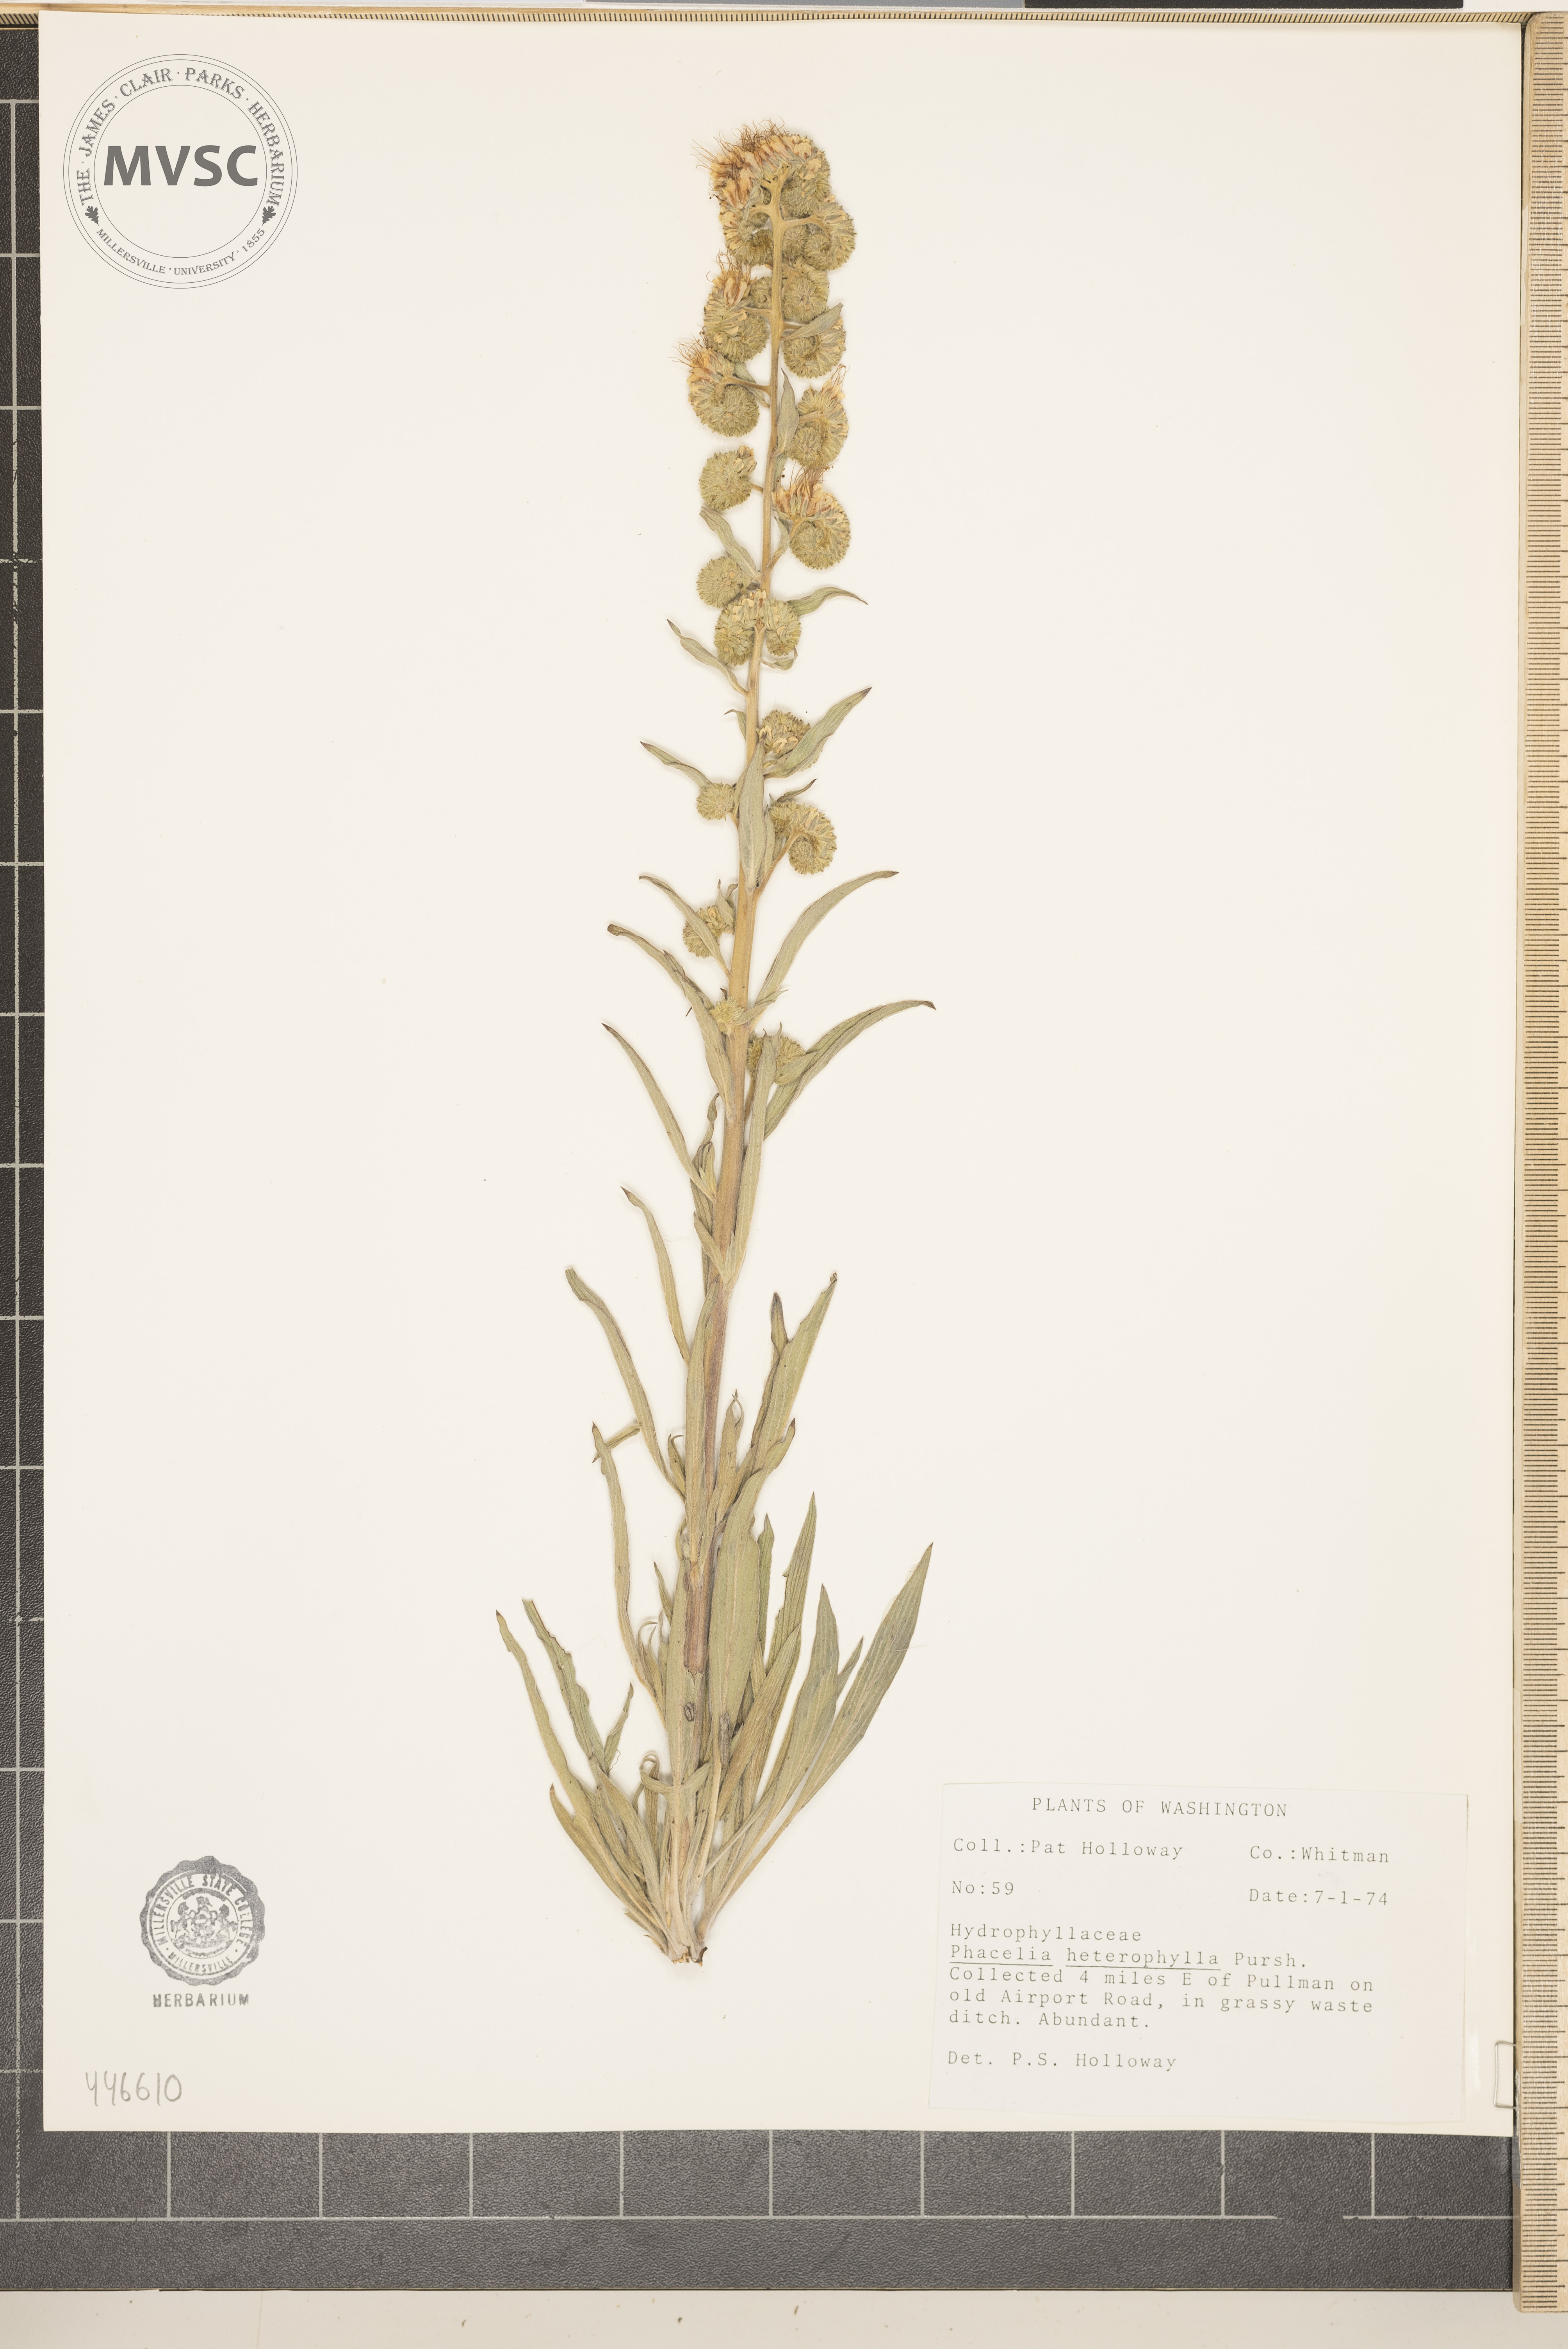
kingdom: Plantae
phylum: Tracheophyta
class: Magnoliopsida
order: Boraginales
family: Hydrophyllaceae
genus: Phacelia
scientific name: Phacelia heterophylla
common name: Variable-leaved phacelia
